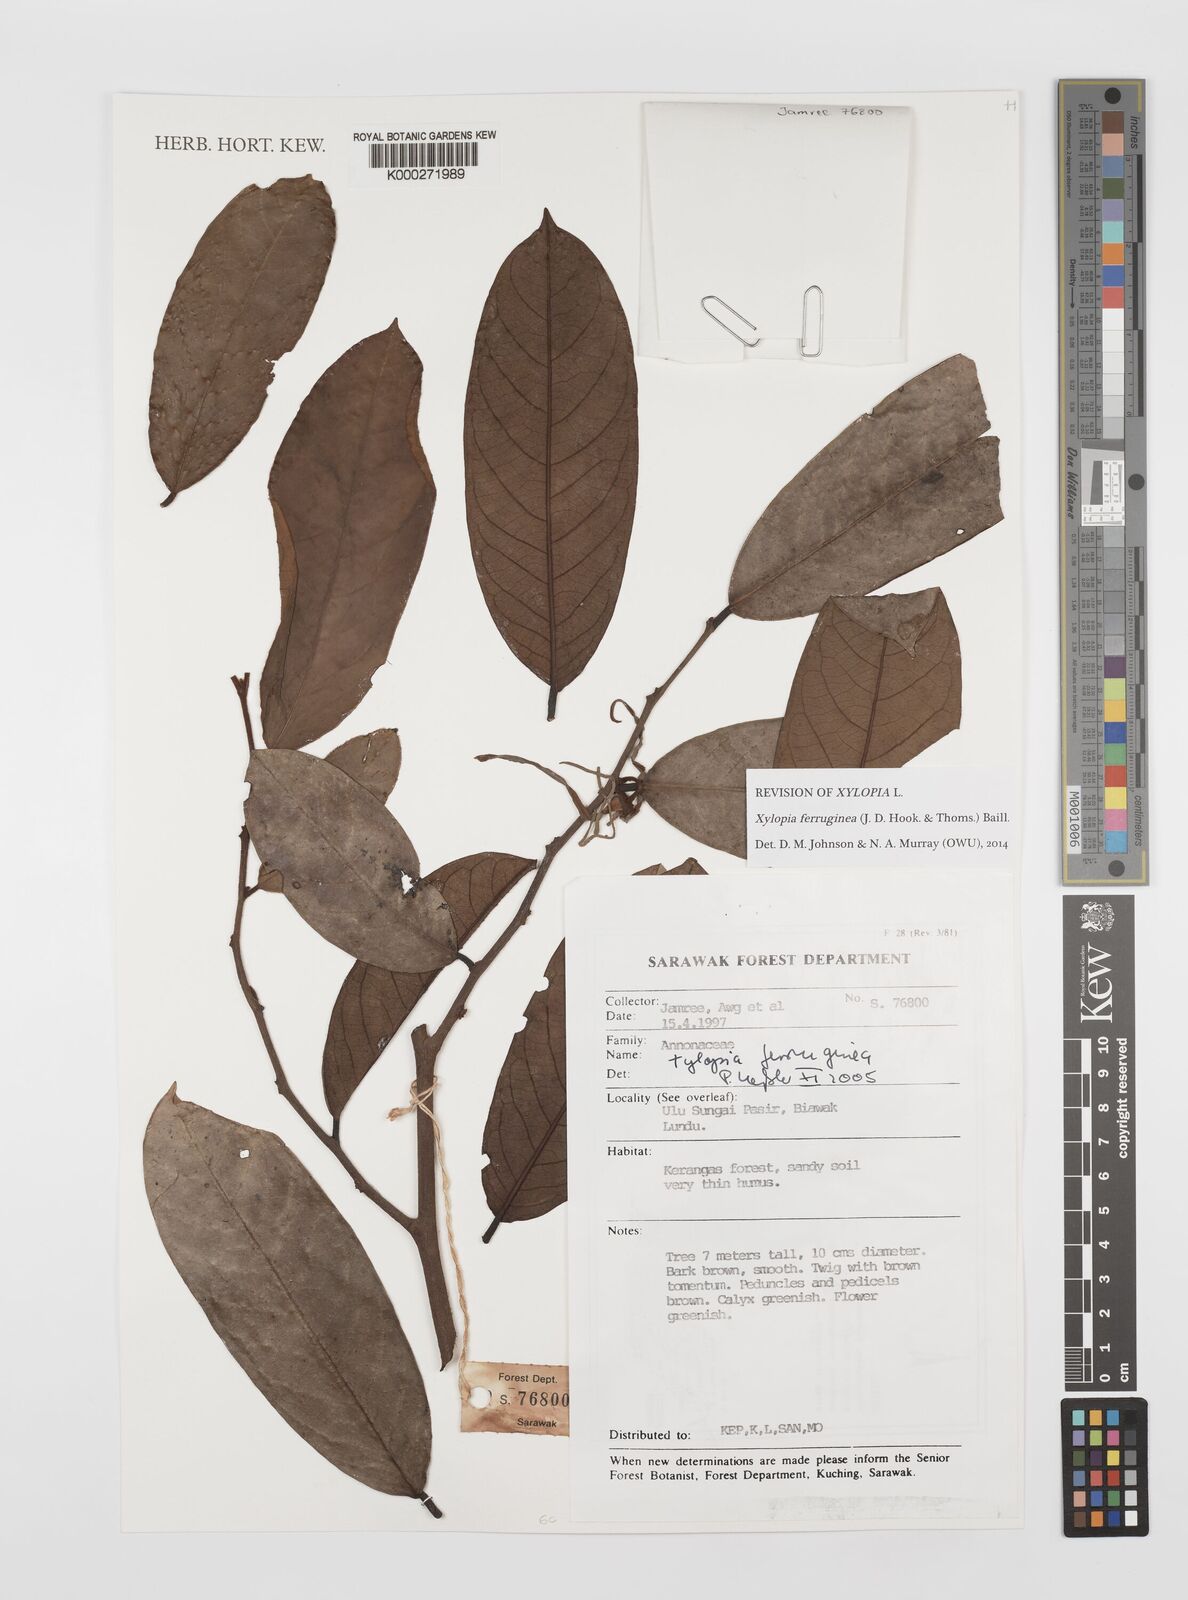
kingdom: Plantae
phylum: Tracheophyta
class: Magnoliopsida
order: Magnoliales
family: Annonaceae
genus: Xylopia
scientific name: Xylopia ferruginea
